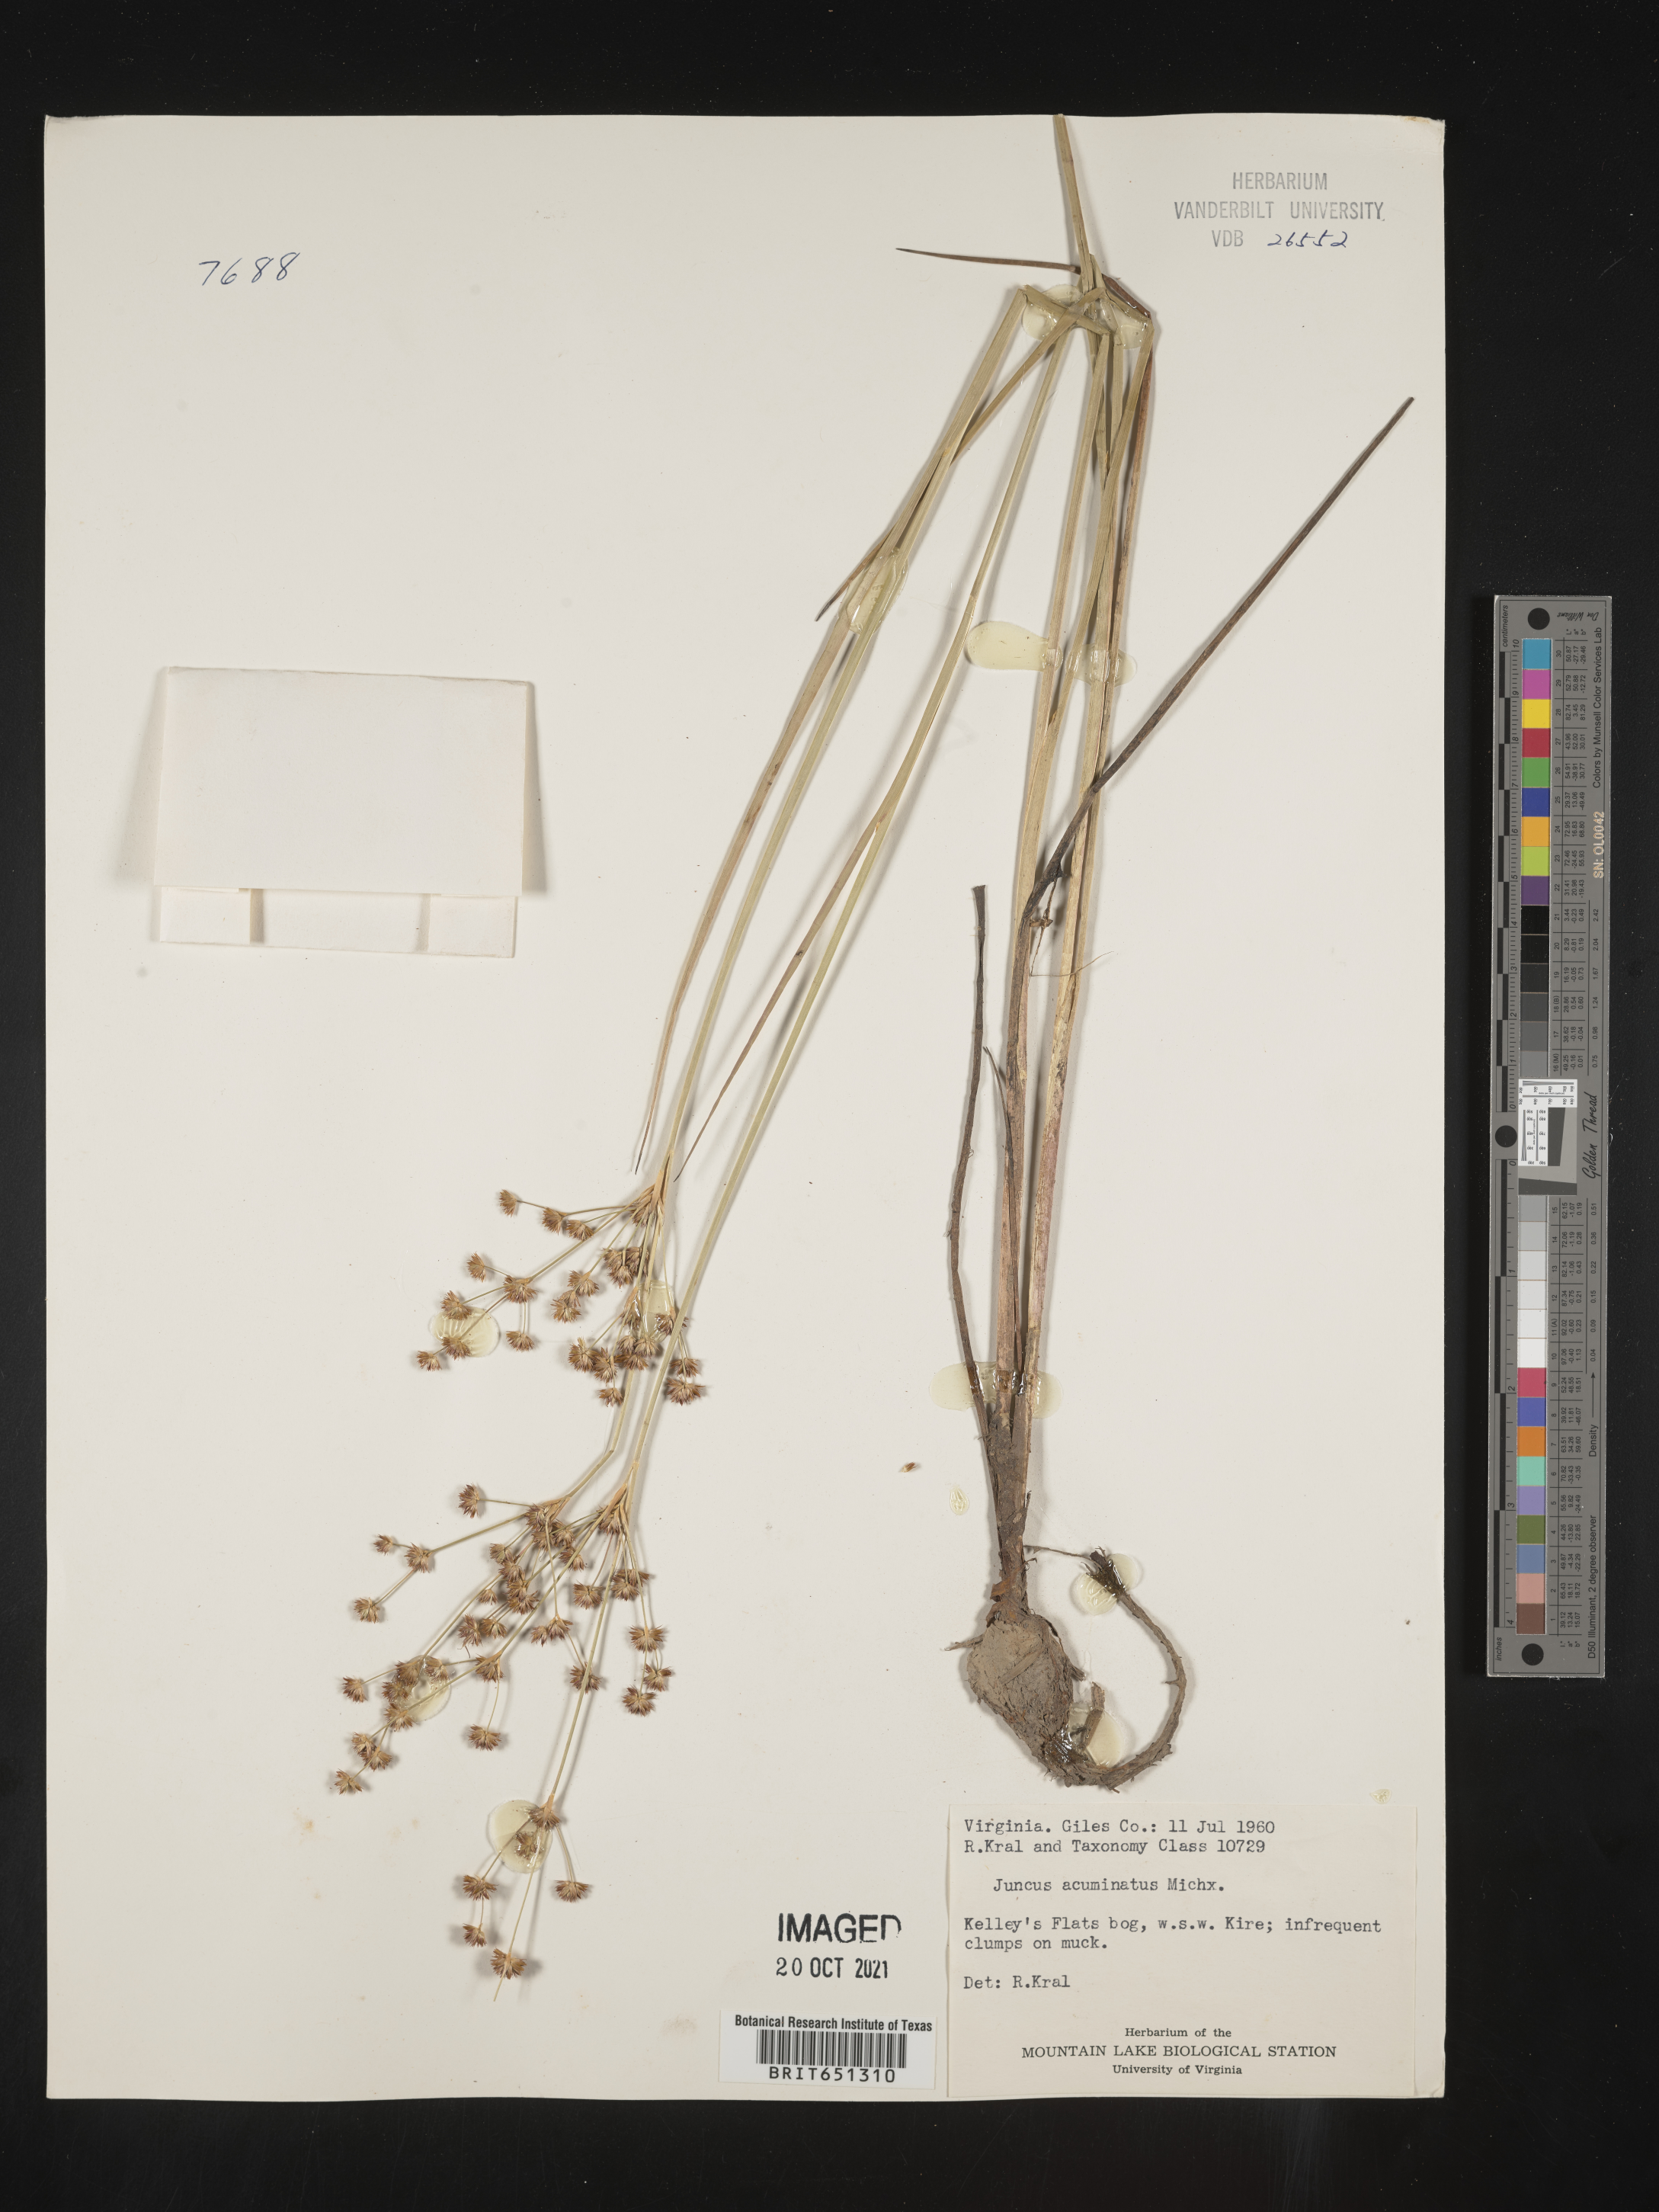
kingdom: Plantae
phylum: Tracheophyta
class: Liliopsida
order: Poales
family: Juncaceae
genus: Juncus
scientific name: Juncus acuminatus
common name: Knotty-leaved rush
